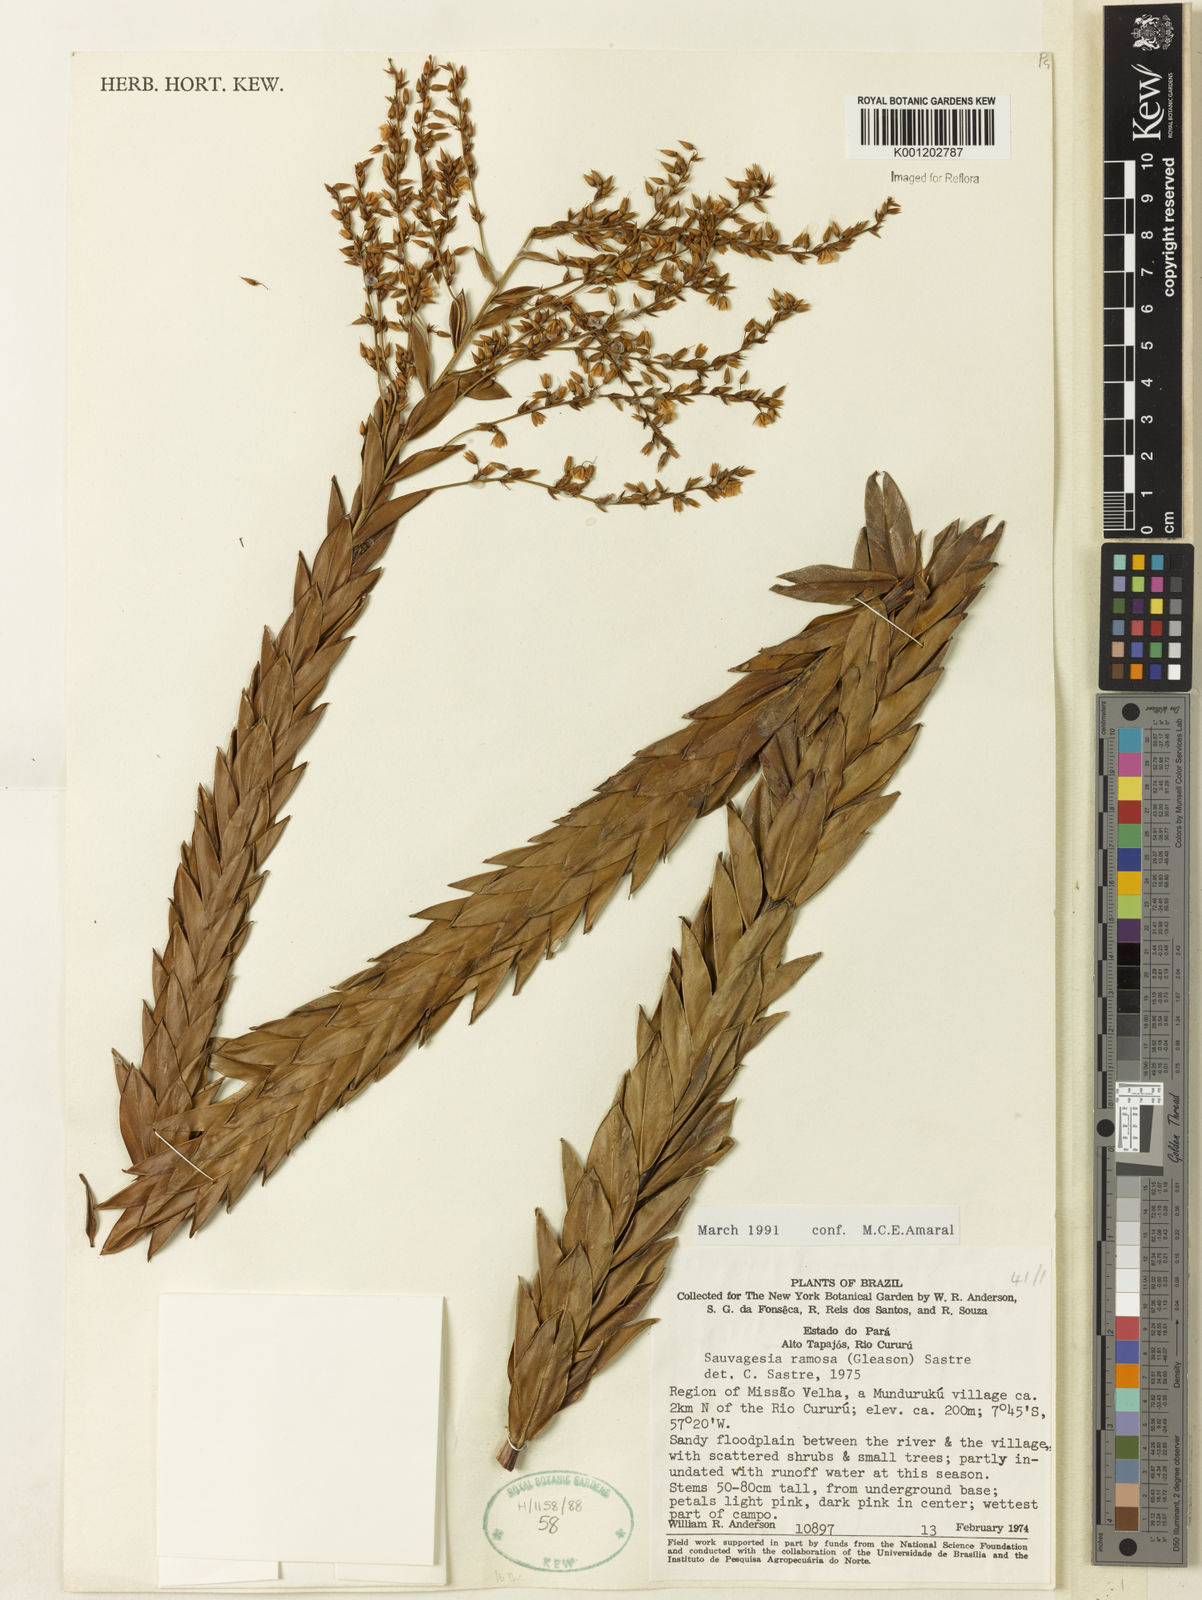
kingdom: Plantae
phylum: Tracheophyta
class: Magnoliopsida
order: Malpighiales
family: Ochnaceae
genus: Sauvagesia
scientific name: Sauvagesia ramosa
